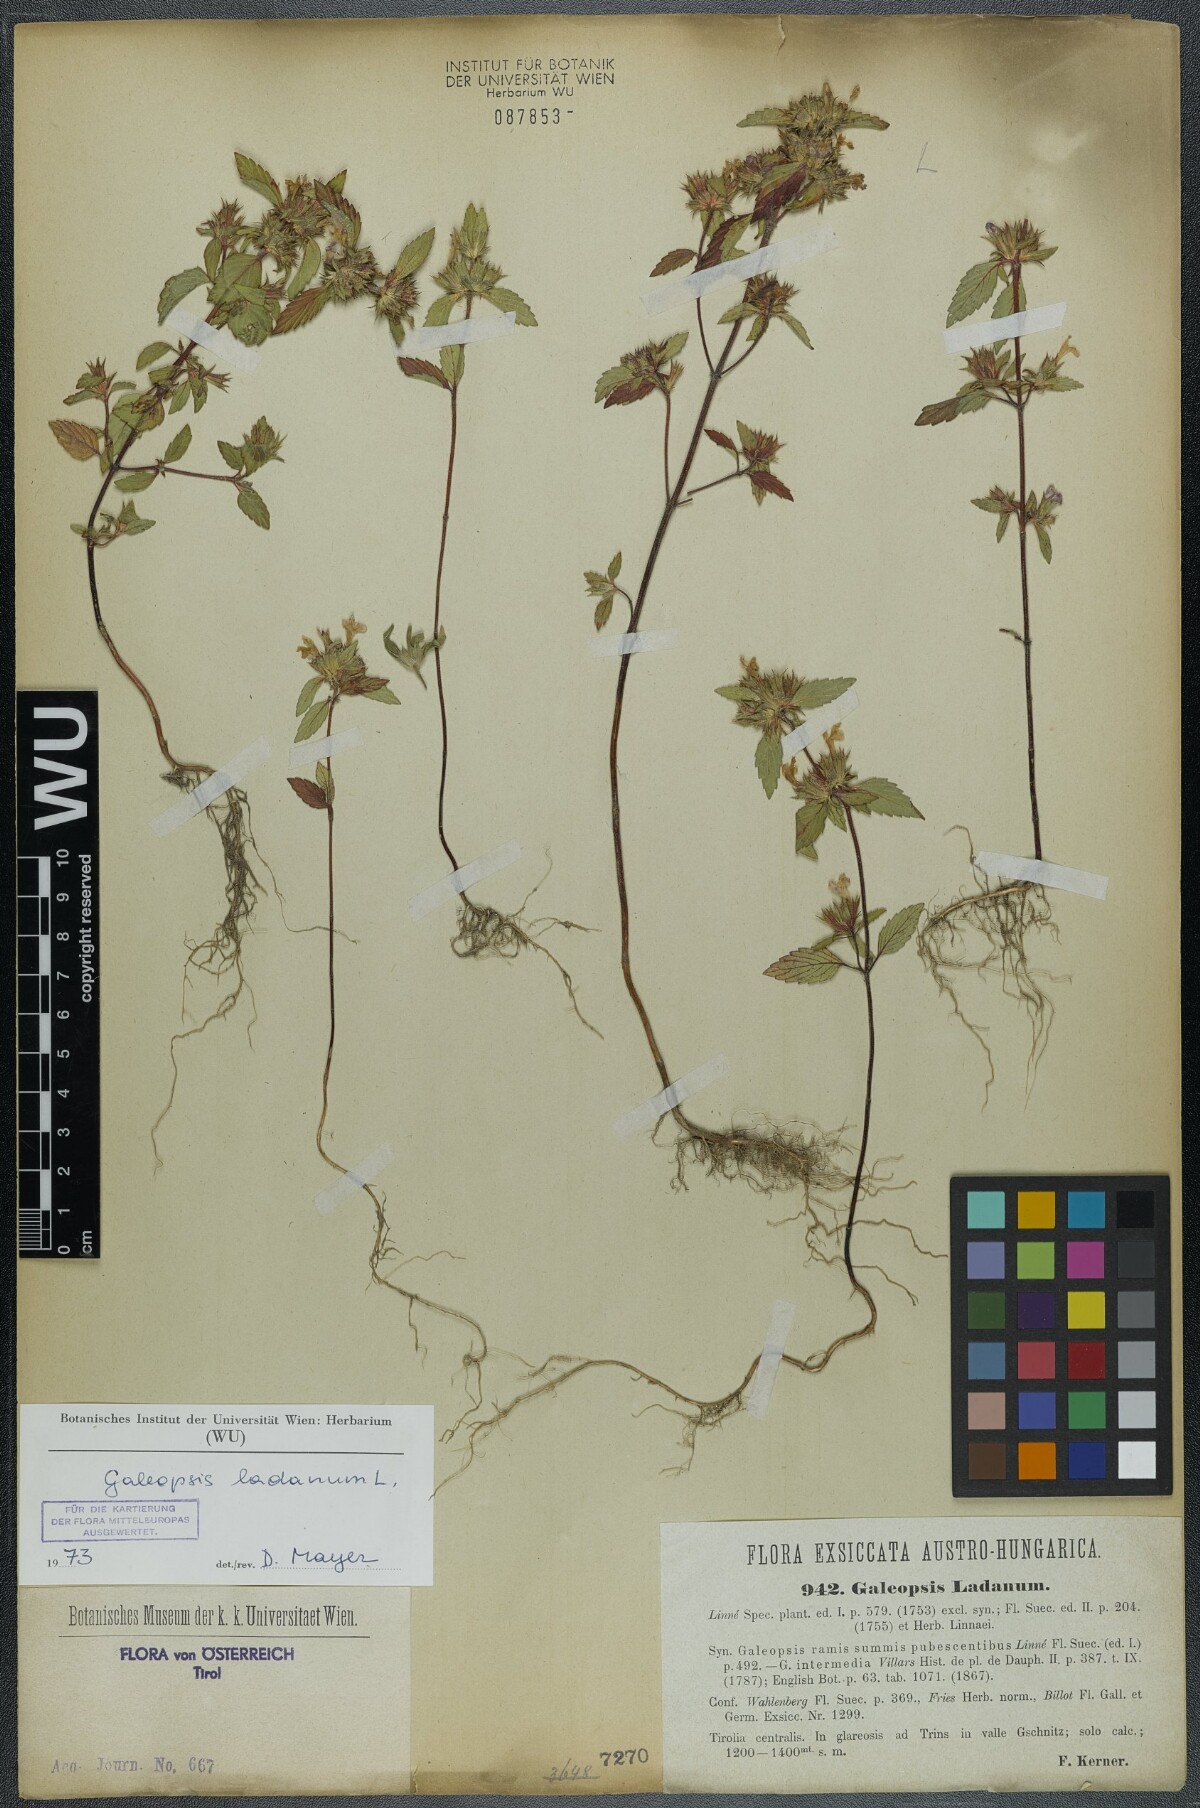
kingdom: Plantae
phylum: Tracheophyta
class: Magnoliopsida
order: Lamiales
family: Lamiaceae
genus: Galeopsis
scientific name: Galeopsis ladanum
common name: Broad-leaved hemp-nettle
